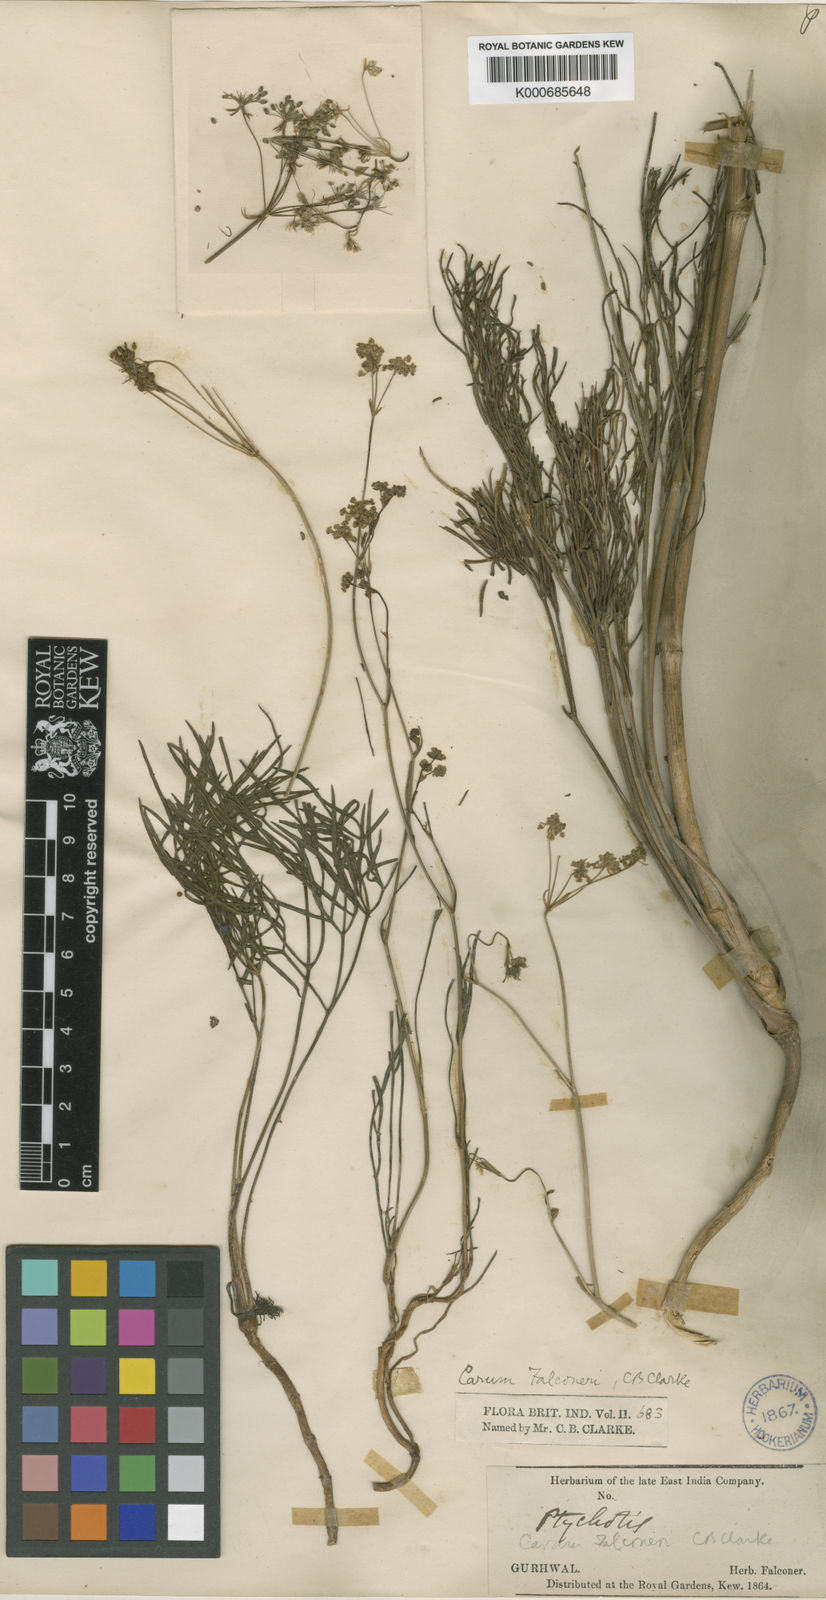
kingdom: Plantae
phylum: Tracheophyta
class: Magnoliopsida
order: Apiales
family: Apiaceae
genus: Trachyspermum
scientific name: Trachyspermum falconeri
